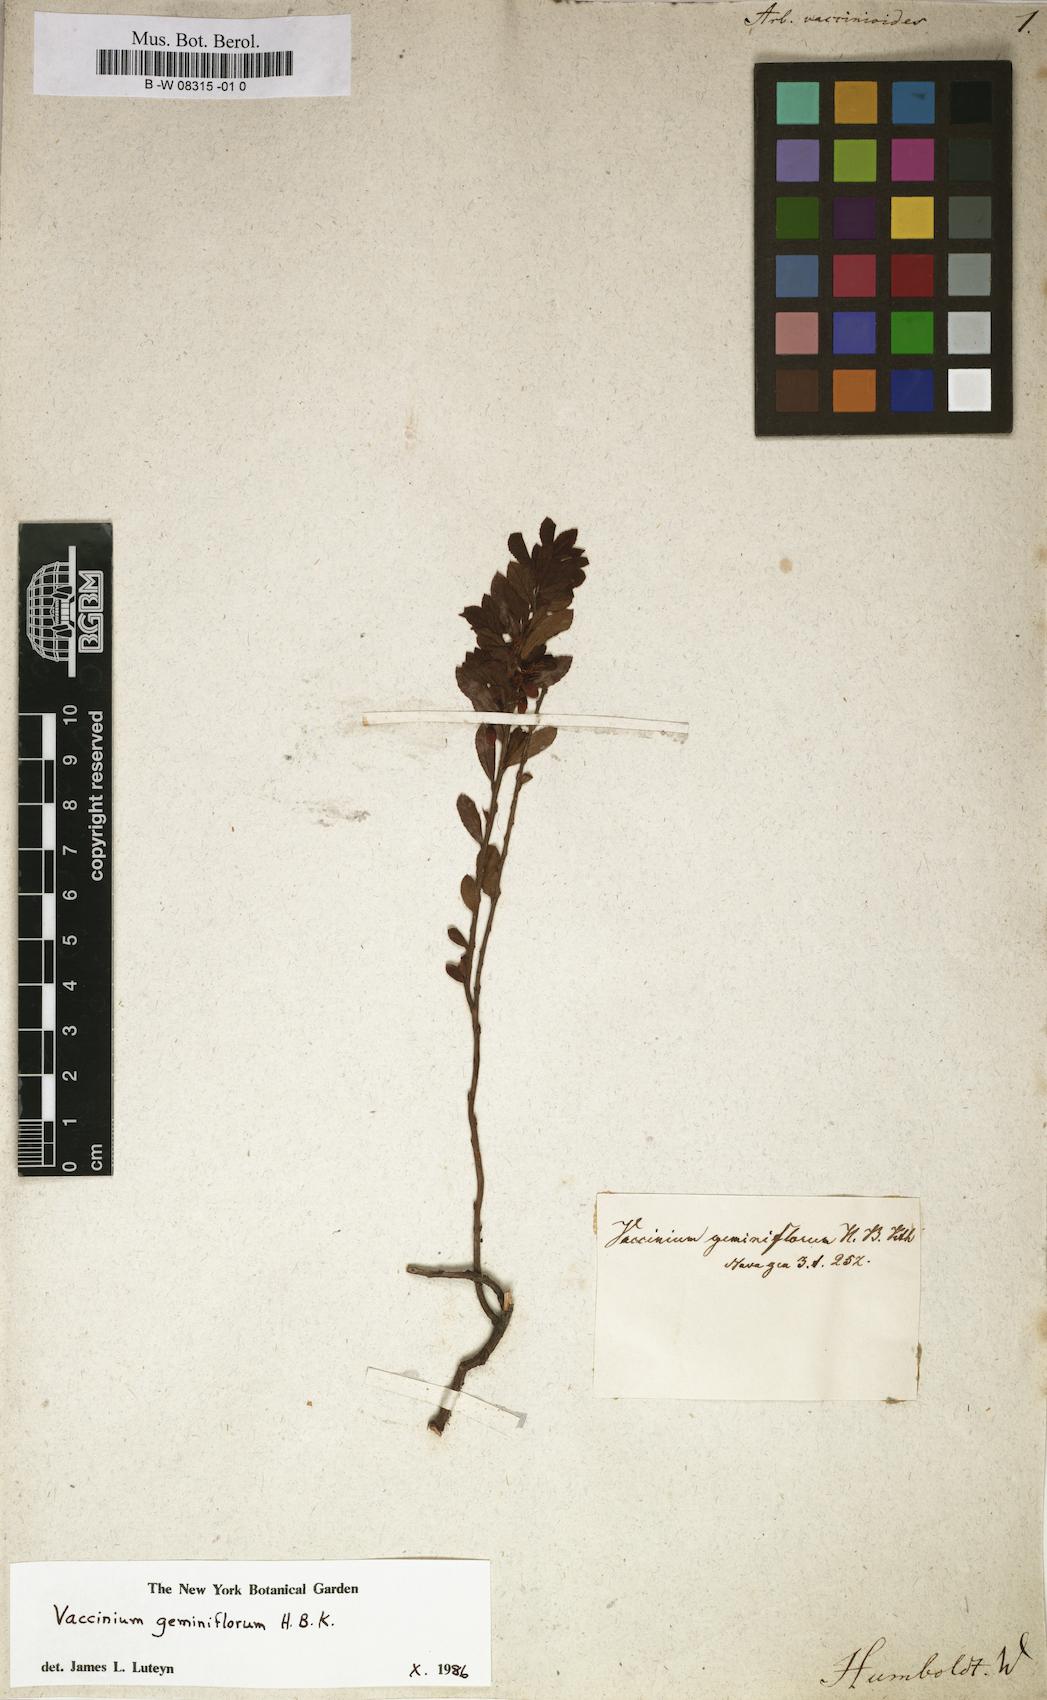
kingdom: Plantae
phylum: Tracheophyta
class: Magnoliopsida
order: Ericales
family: Ericaceae
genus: Arbutus
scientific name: Arbutus
